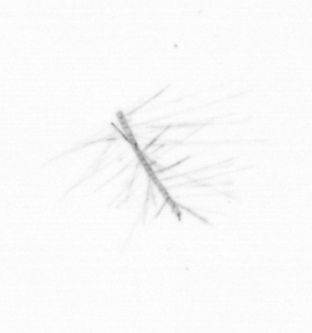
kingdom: Chromista
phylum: Ochrophyta
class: Bacillariophyceae
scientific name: Bacillariophyceae
